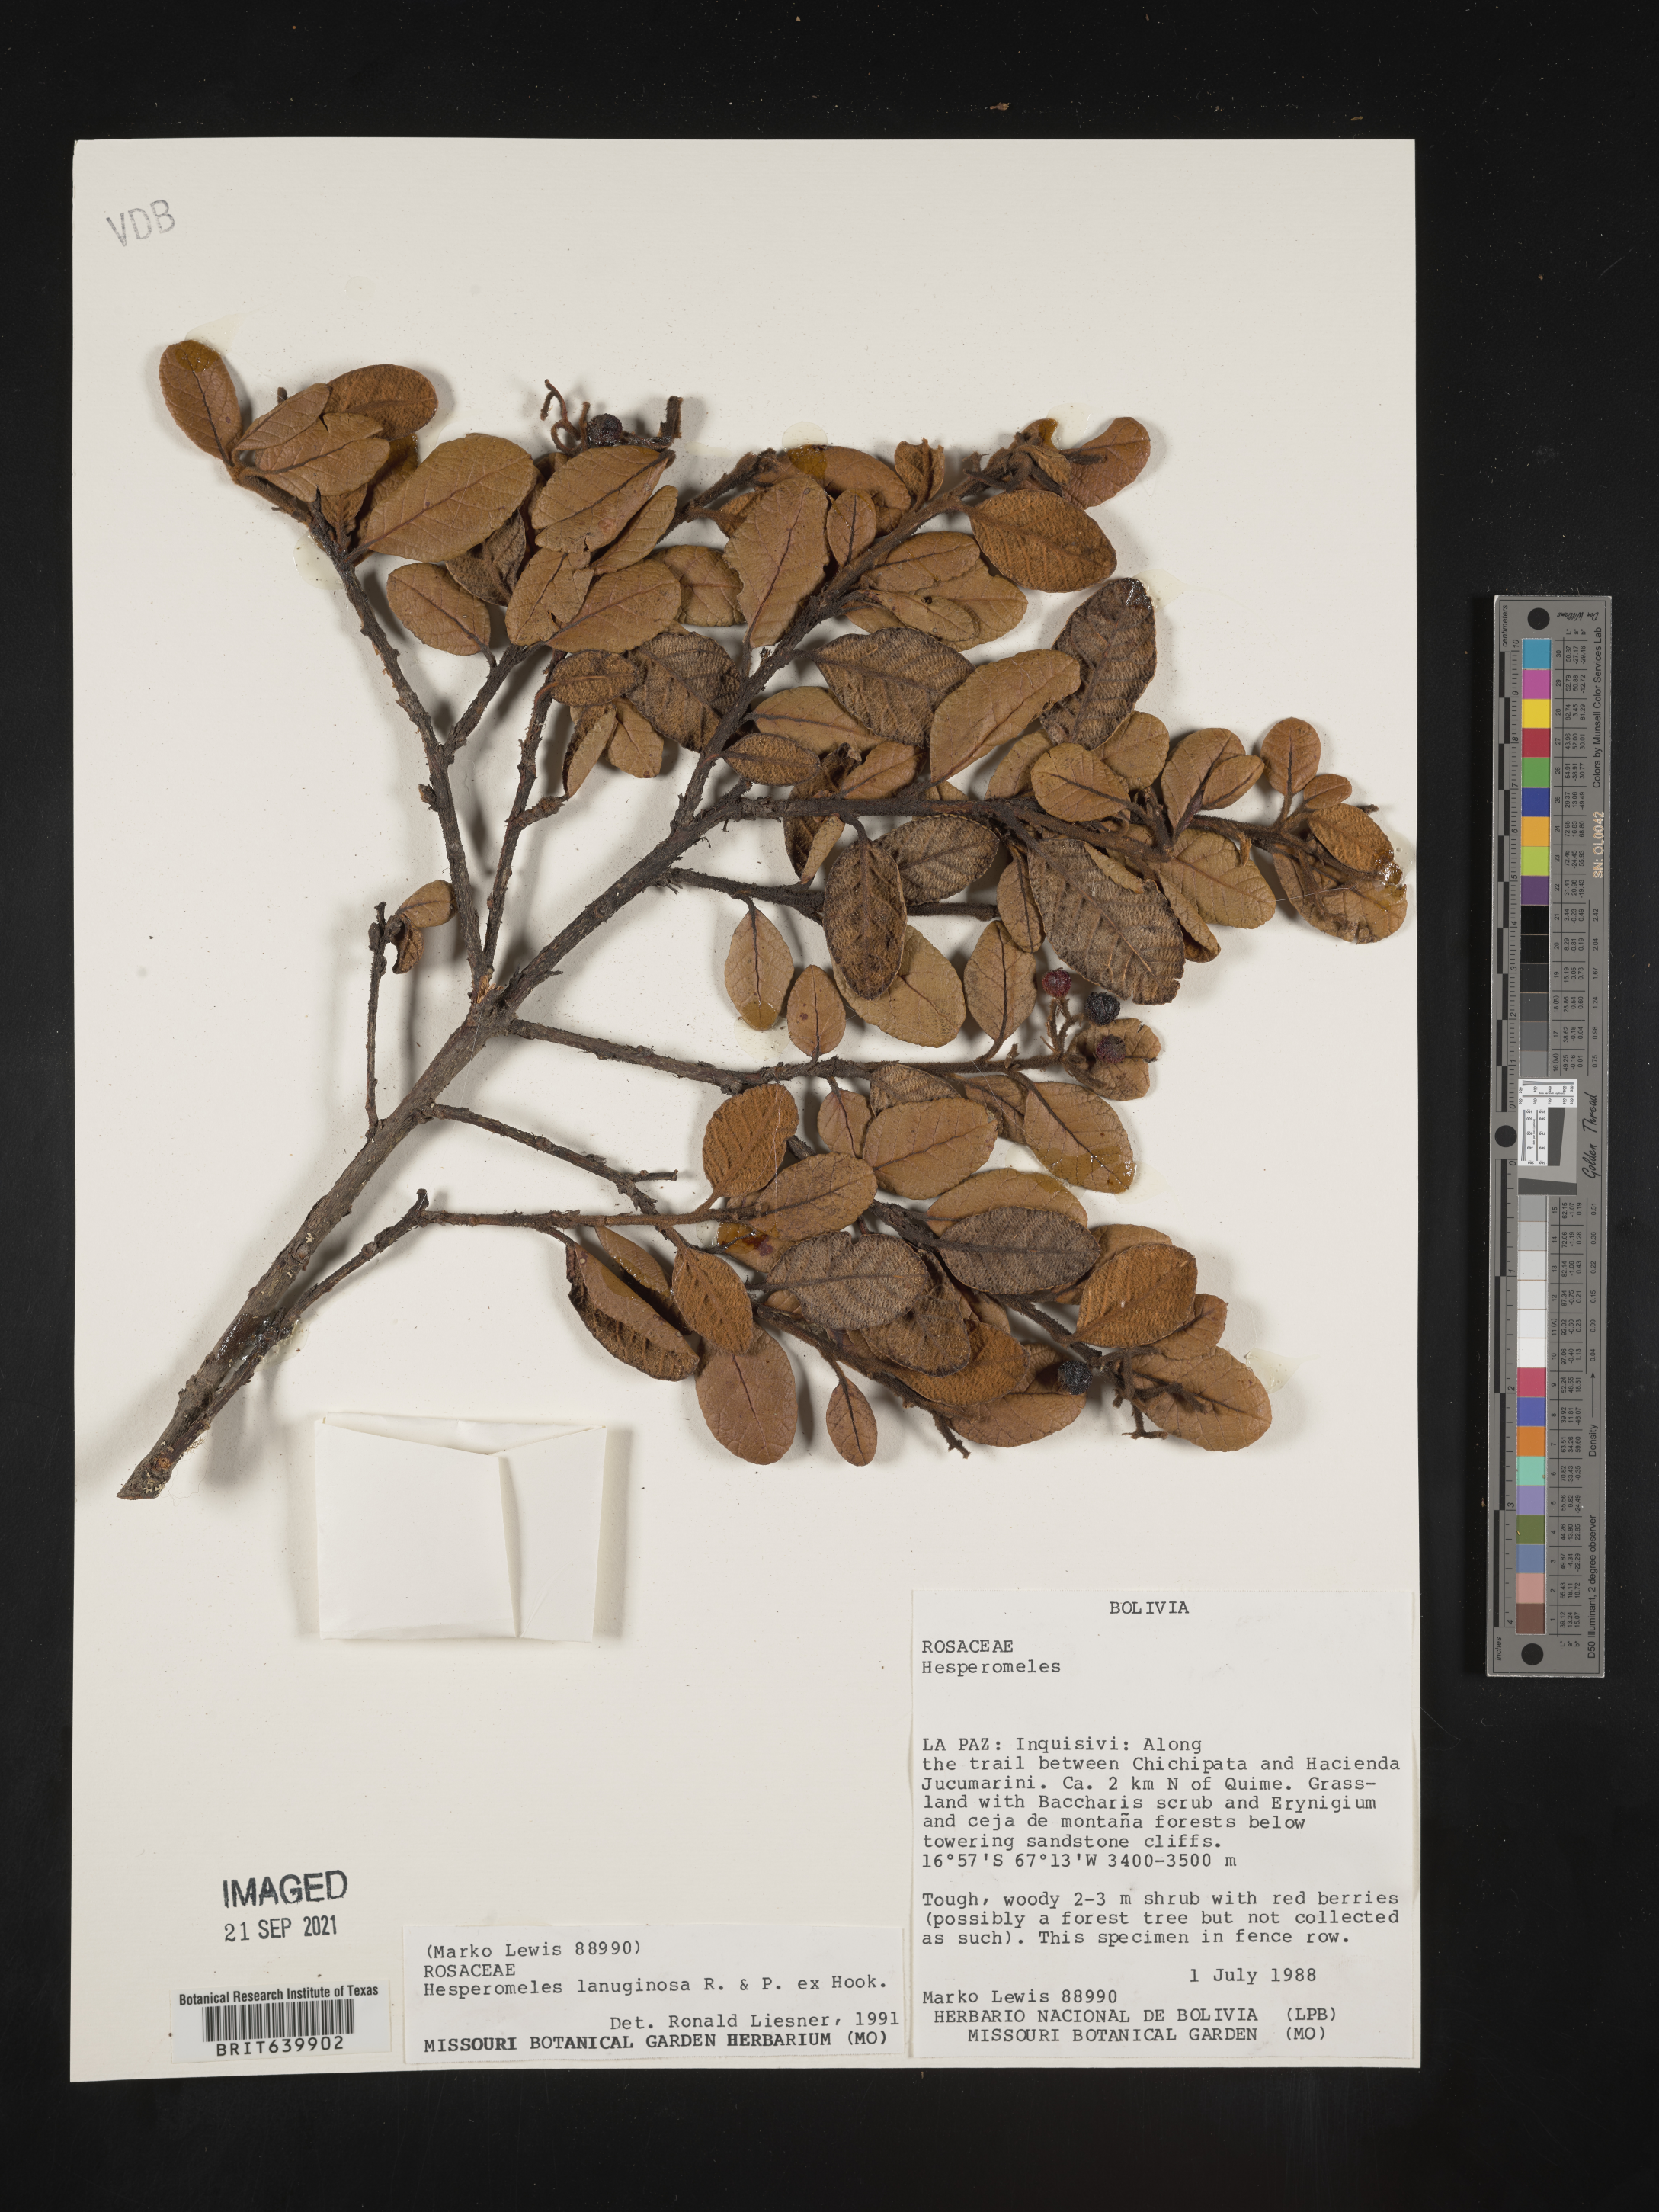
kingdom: Plantae
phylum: Tracheophyta
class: Magnoliopsida
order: Rosales
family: Rosaceae
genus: Hesperomeles
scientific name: Hesperomeles
